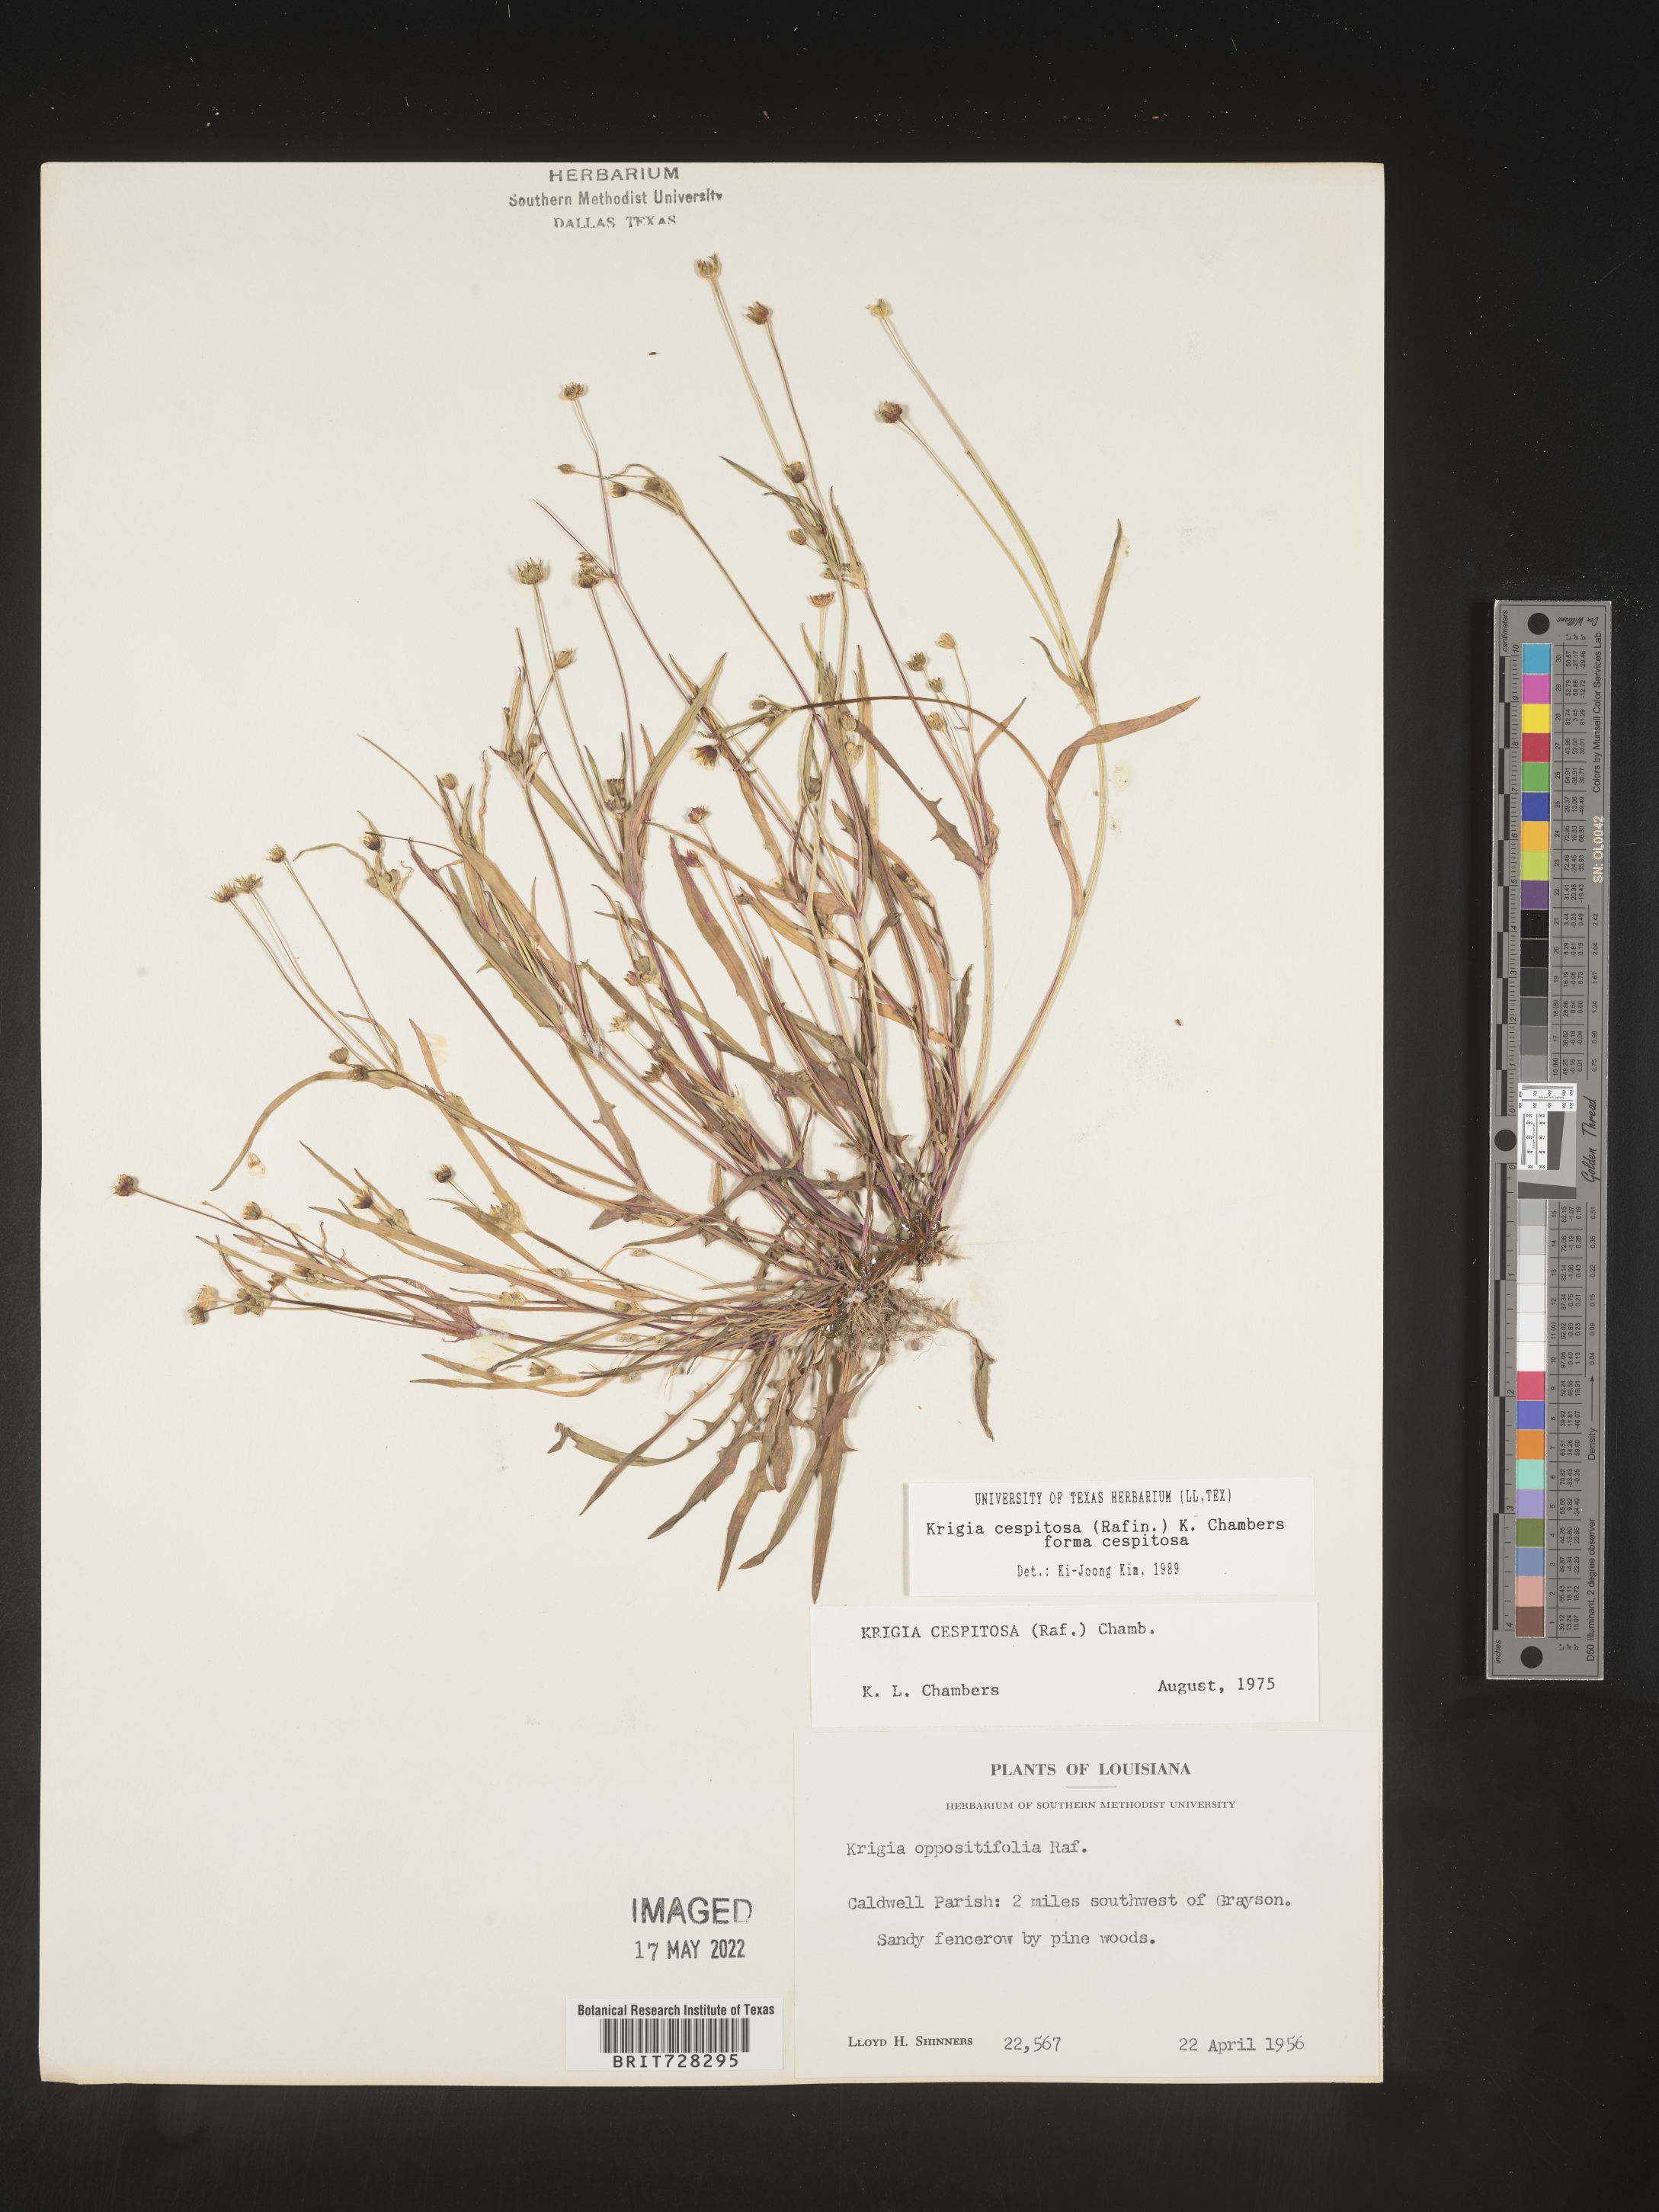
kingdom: Plantae
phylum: Tracheophyta
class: Magnoliopsida
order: Asterales
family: Asteraceae
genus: Krigia
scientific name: Krigia caespitosa
